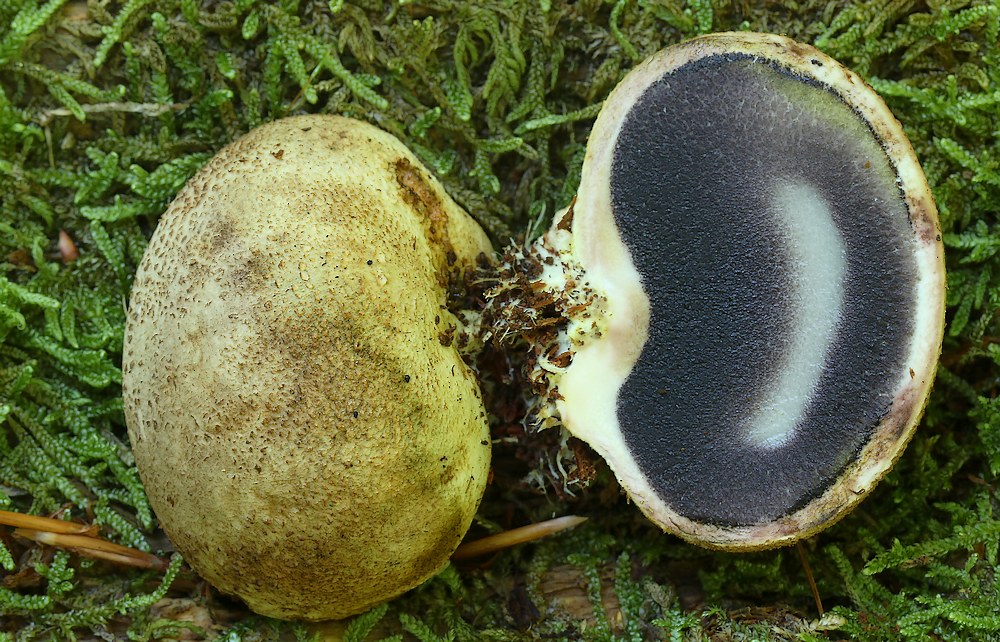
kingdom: Fungi
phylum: Basidiomycota
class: Agaricomycetes
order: Boletales
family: Sclerodermataceae
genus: Scleroderma
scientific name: Scleroderma citrinum
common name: almindelig bruskbold
